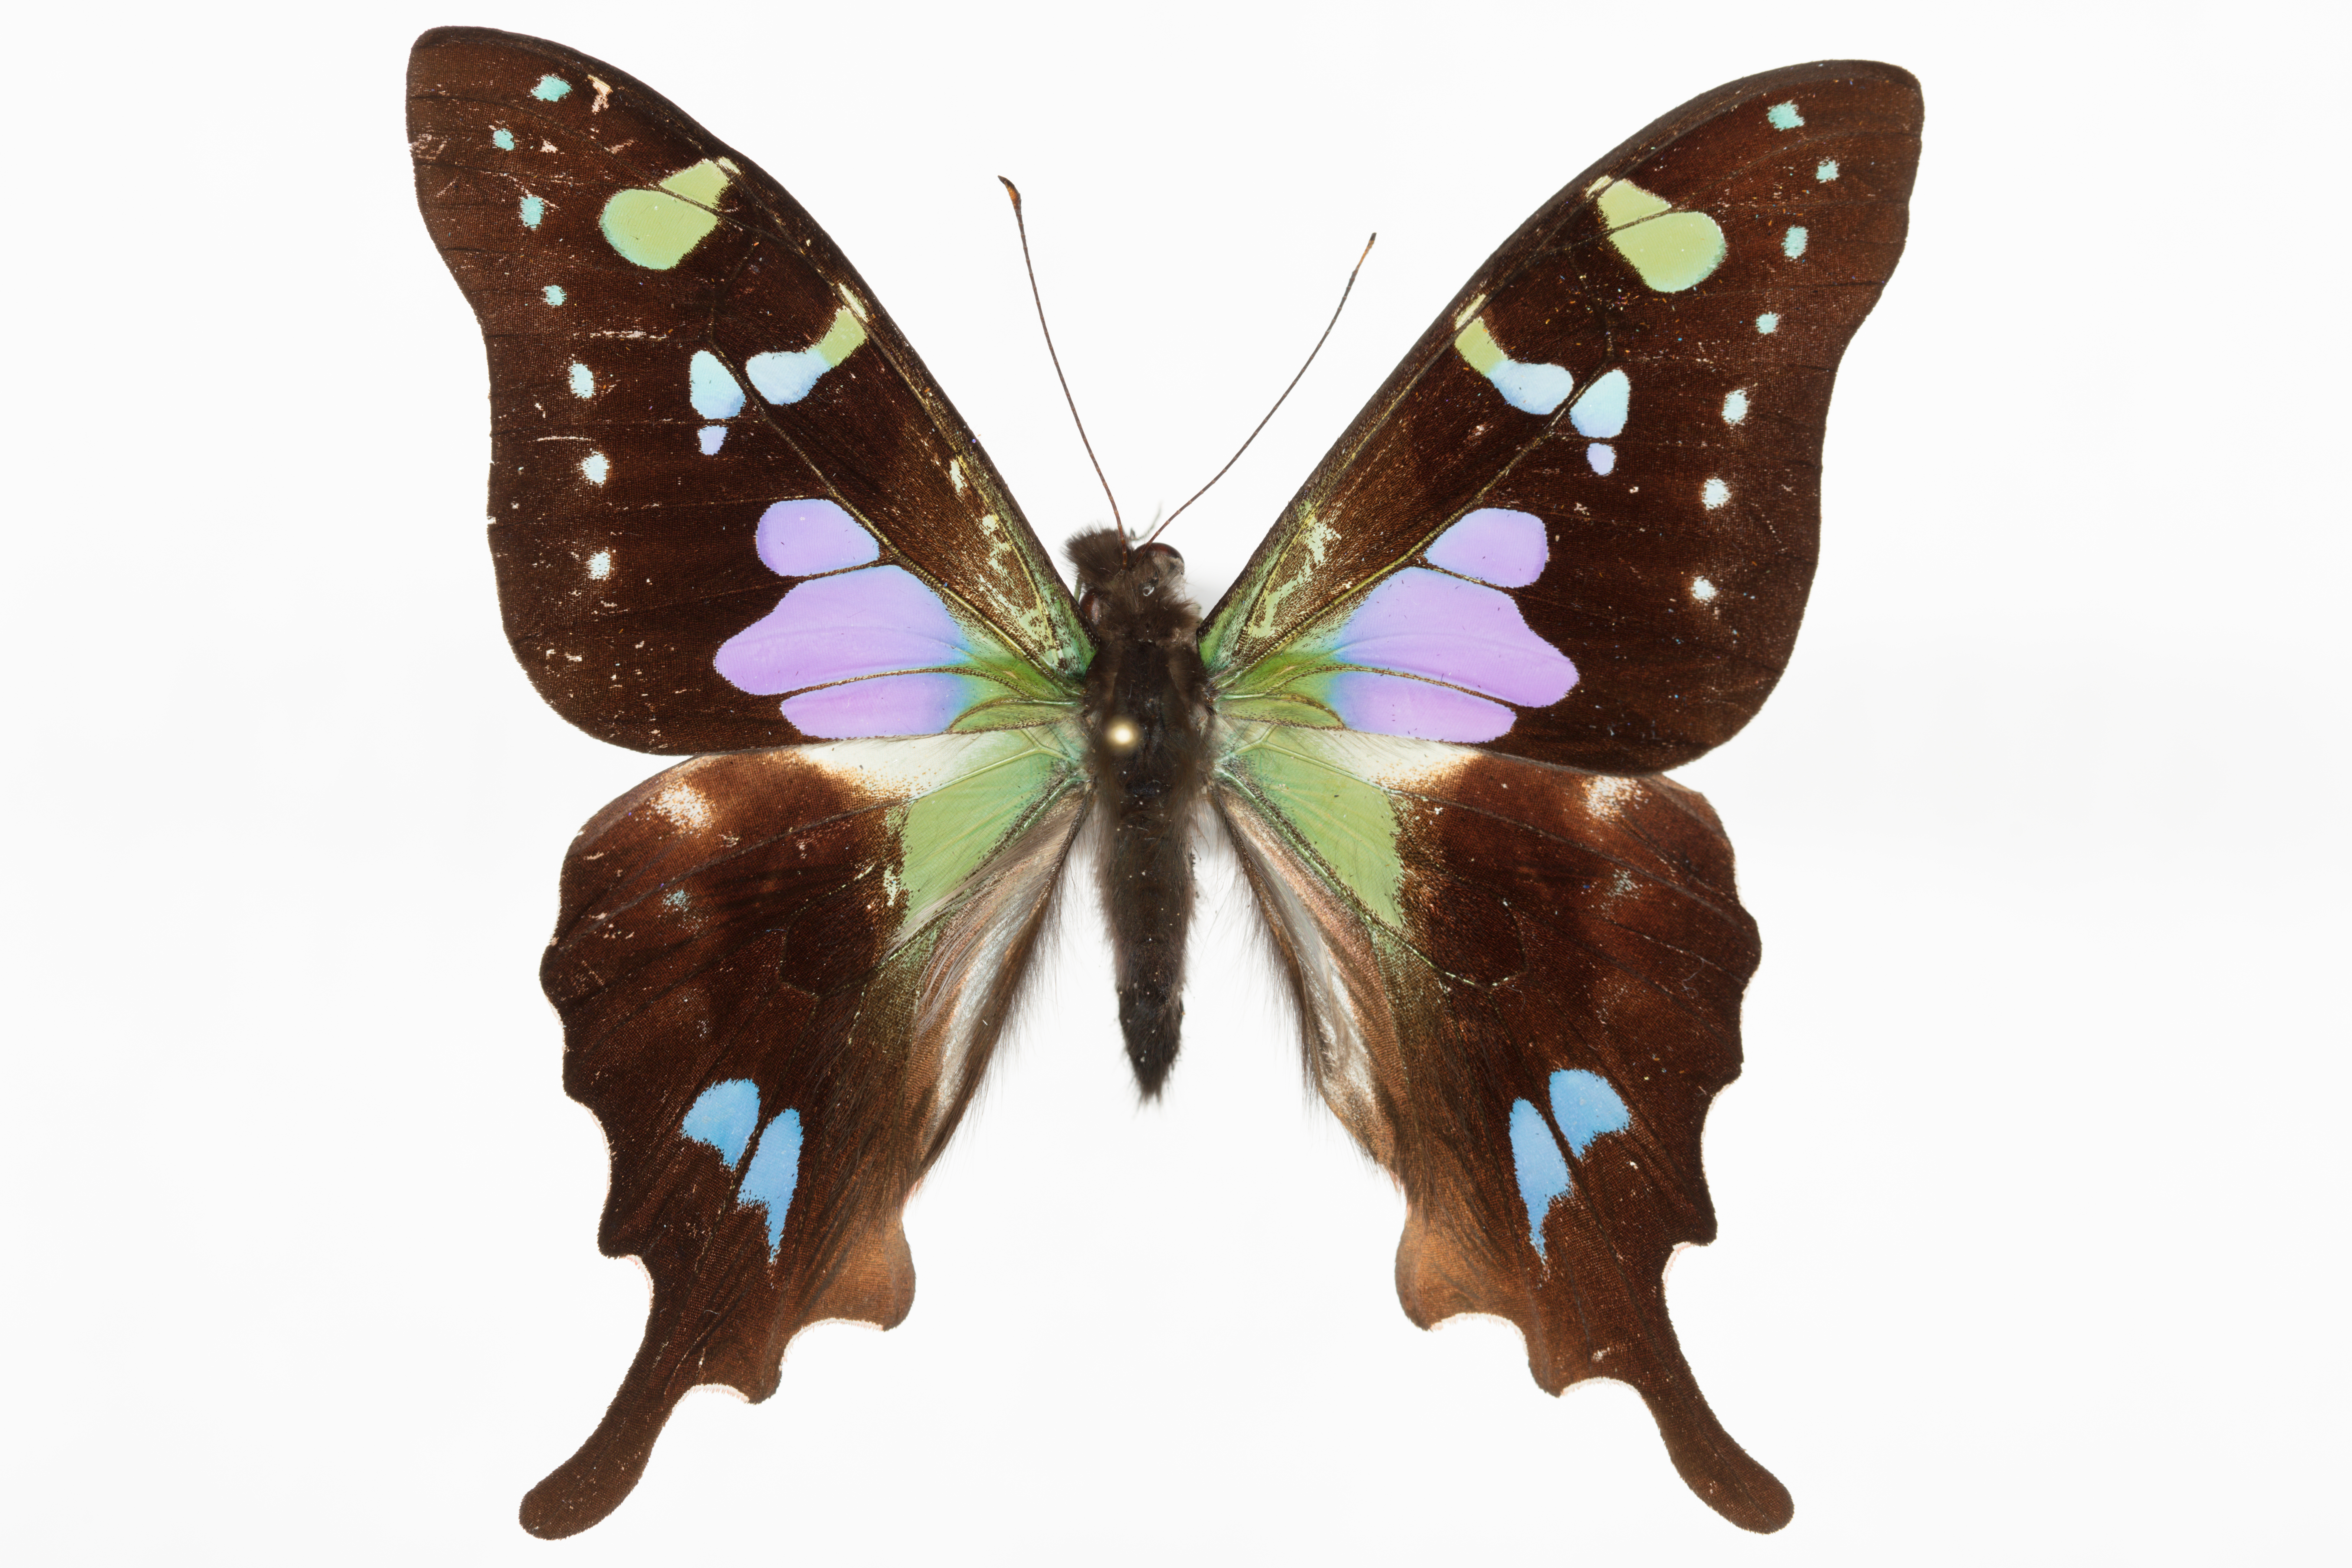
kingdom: Animalia
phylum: Arthropoda
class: Insecta
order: Lepidoptera
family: Papilionidae
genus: Graphium
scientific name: Graphium weiskei
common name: Purple spotted swallowtail
